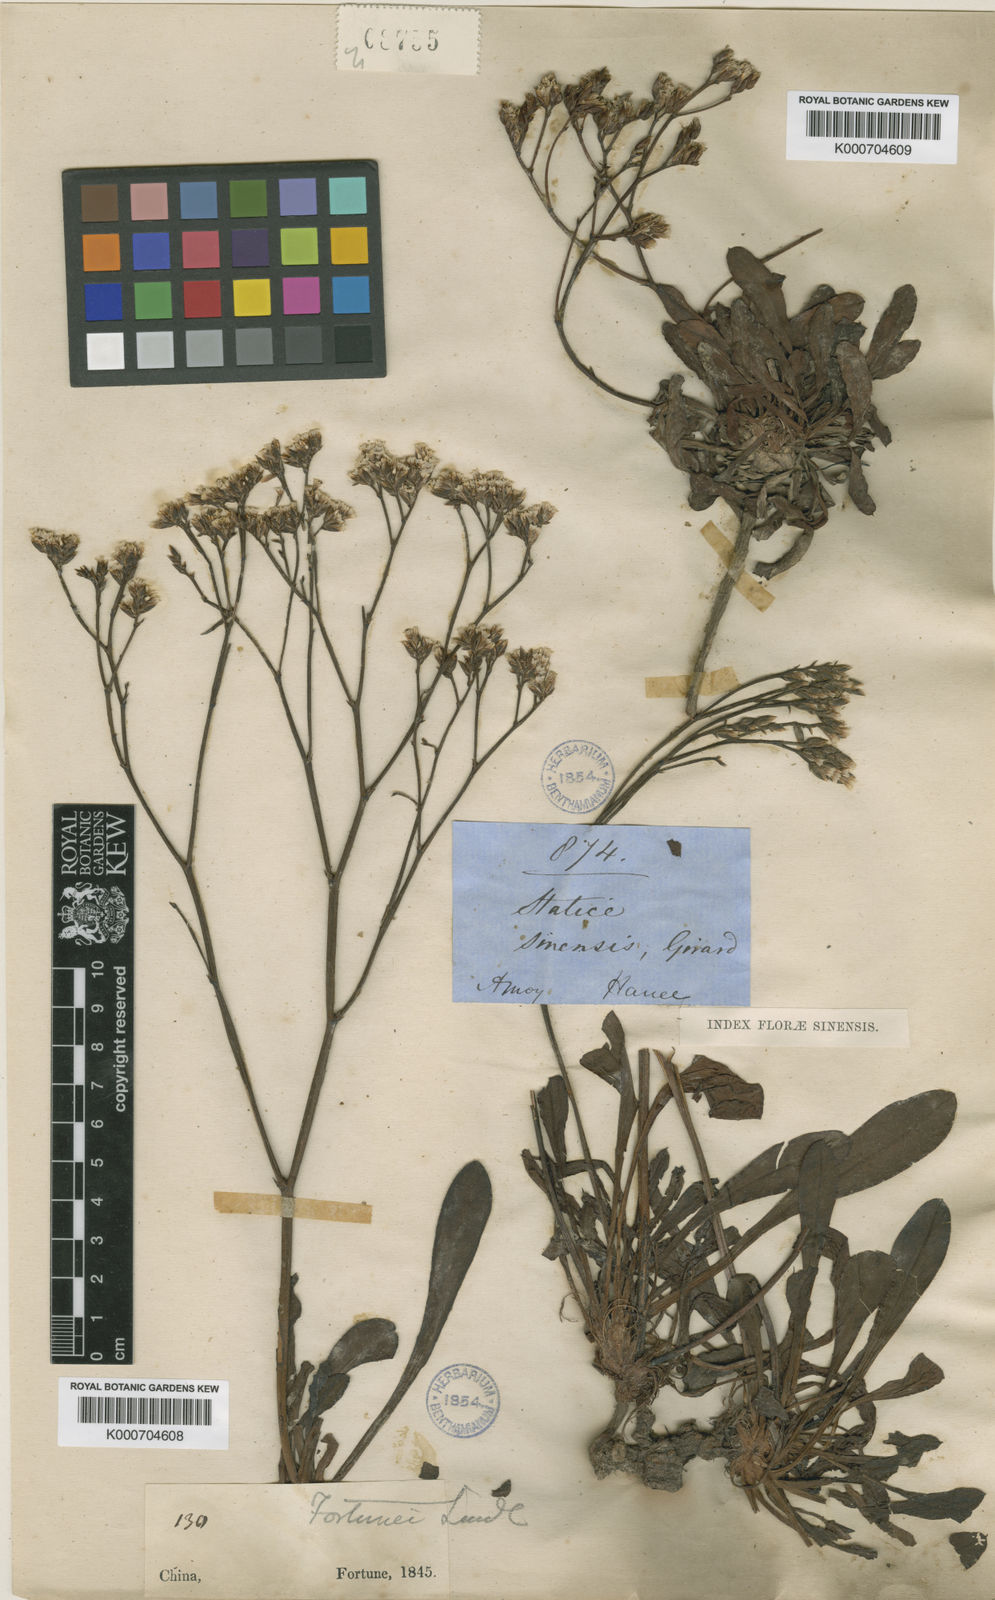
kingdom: Plantae
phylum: Tracheophyta
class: Magnoliopsida
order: Caryophyllales
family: Plumbaginaceae
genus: Limonium
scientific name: Limonium sinense
